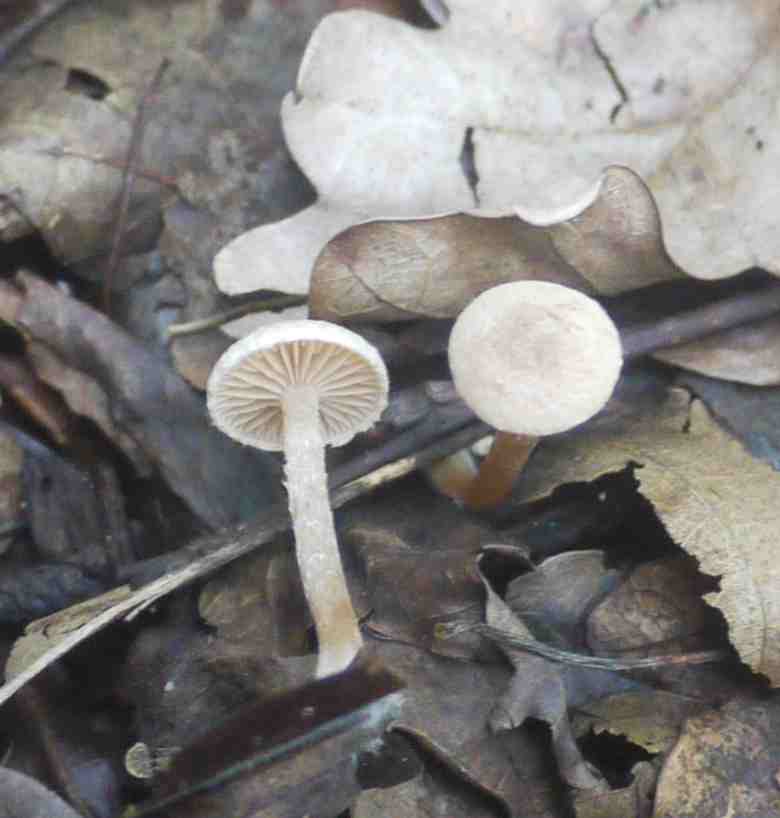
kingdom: Fungi
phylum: Basidiomycota
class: Agaricomycetes
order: Agaricales
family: Tubariaceae
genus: Tubaria
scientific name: Tubaria conspersa
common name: bleg fnughat
